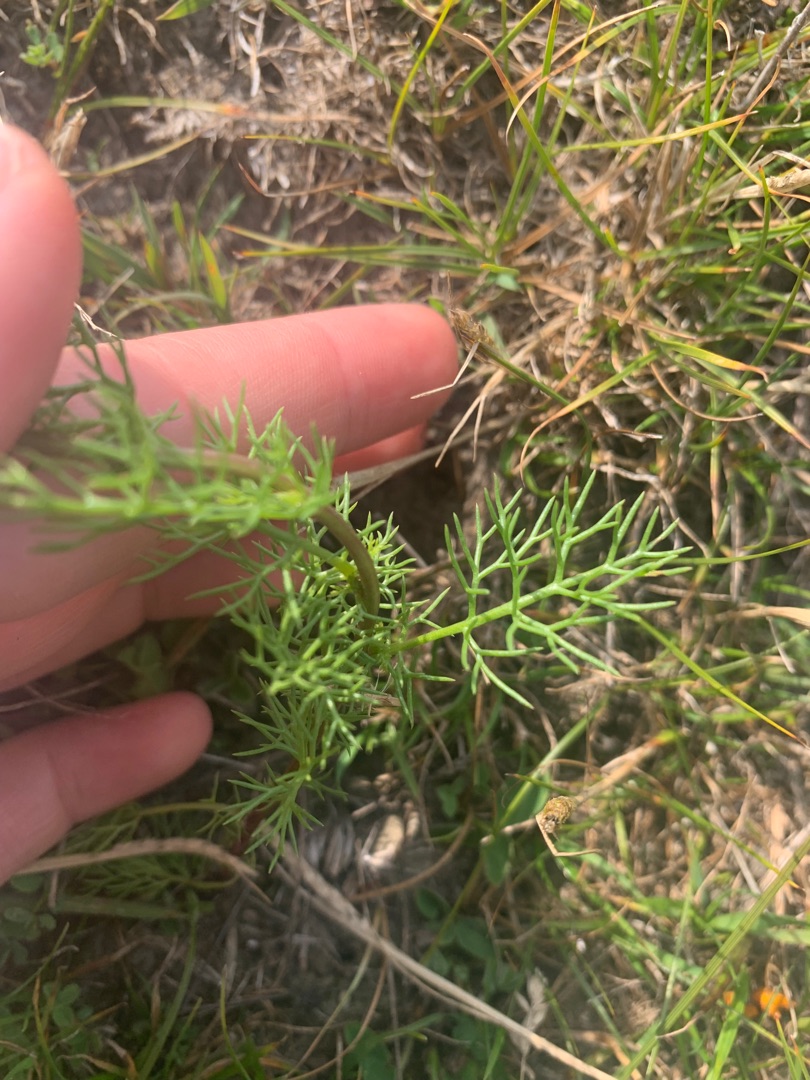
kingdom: Plantae
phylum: Tracheophyta
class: Magnoliopsida
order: Asterales
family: Asteraceae
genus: Tripleurospermum
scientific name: Tripleurospermum inodorum
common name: Lugtløs kamille
